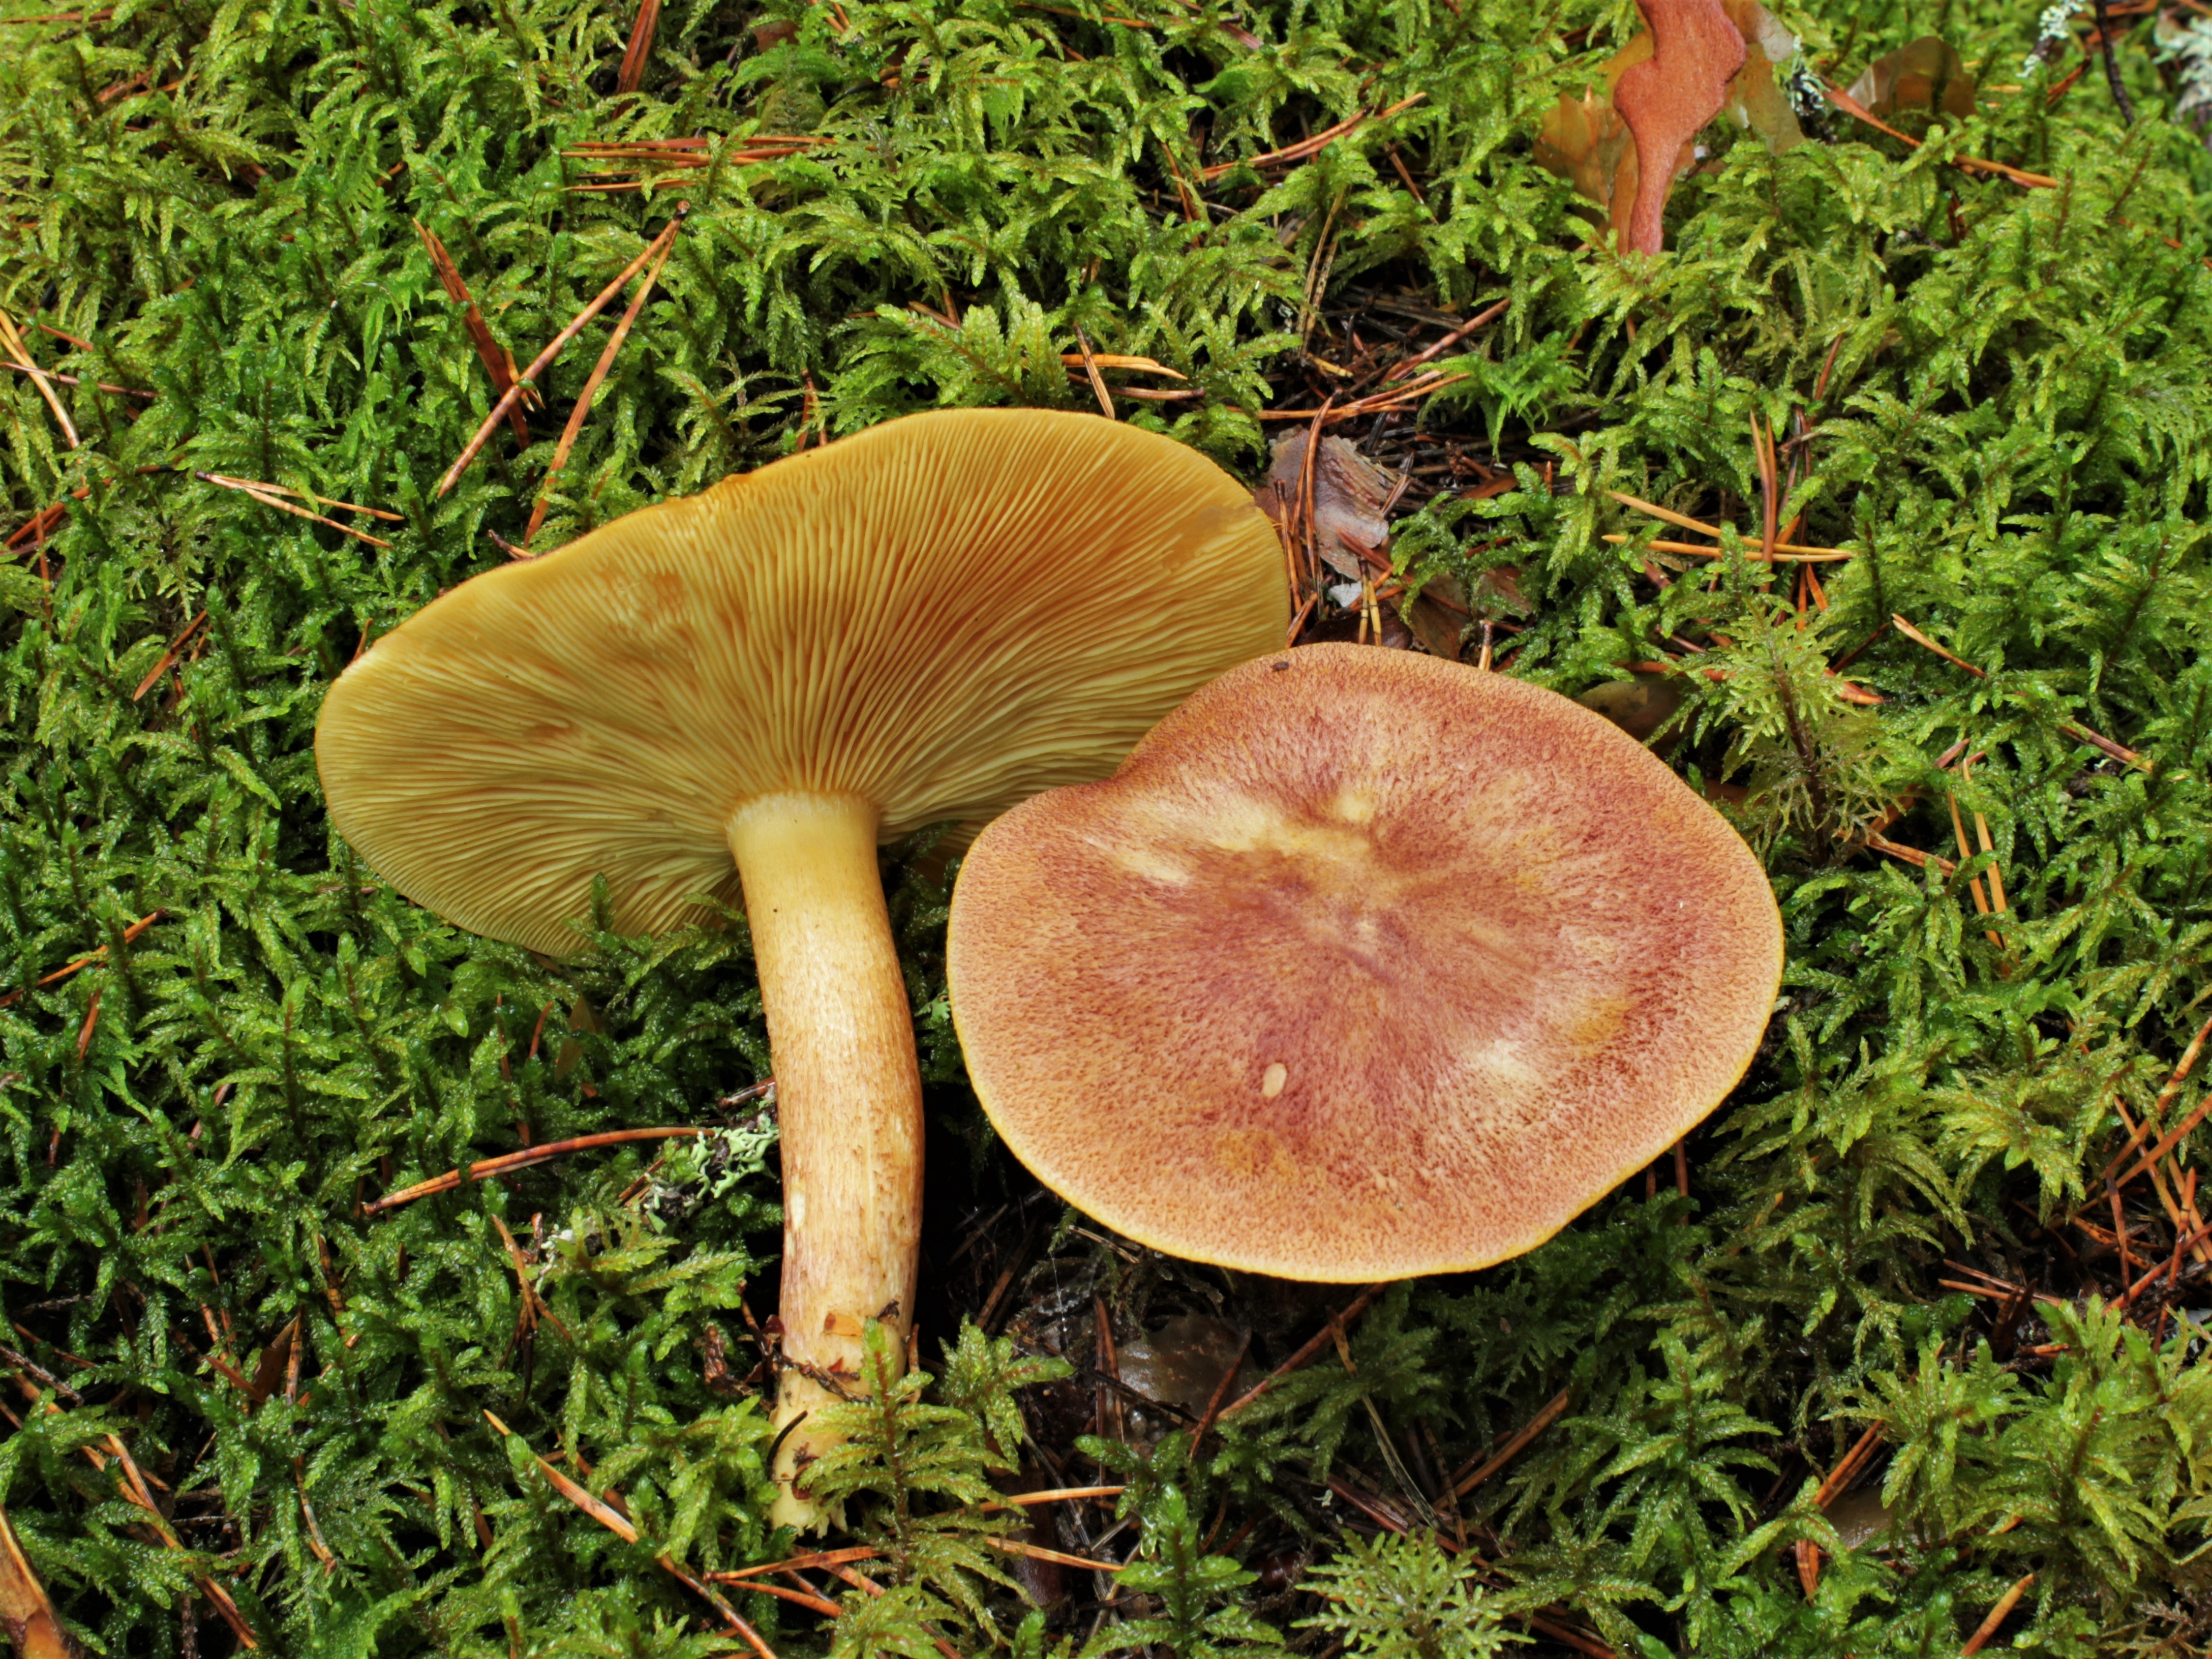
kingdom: Fungi
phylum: Basidiomycota
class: Agaricomycetes
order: Agaricales
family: Tricholomataceae
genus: Tricholomopsis
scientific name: Tricholomopsis rutilans
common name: Plums and custard
